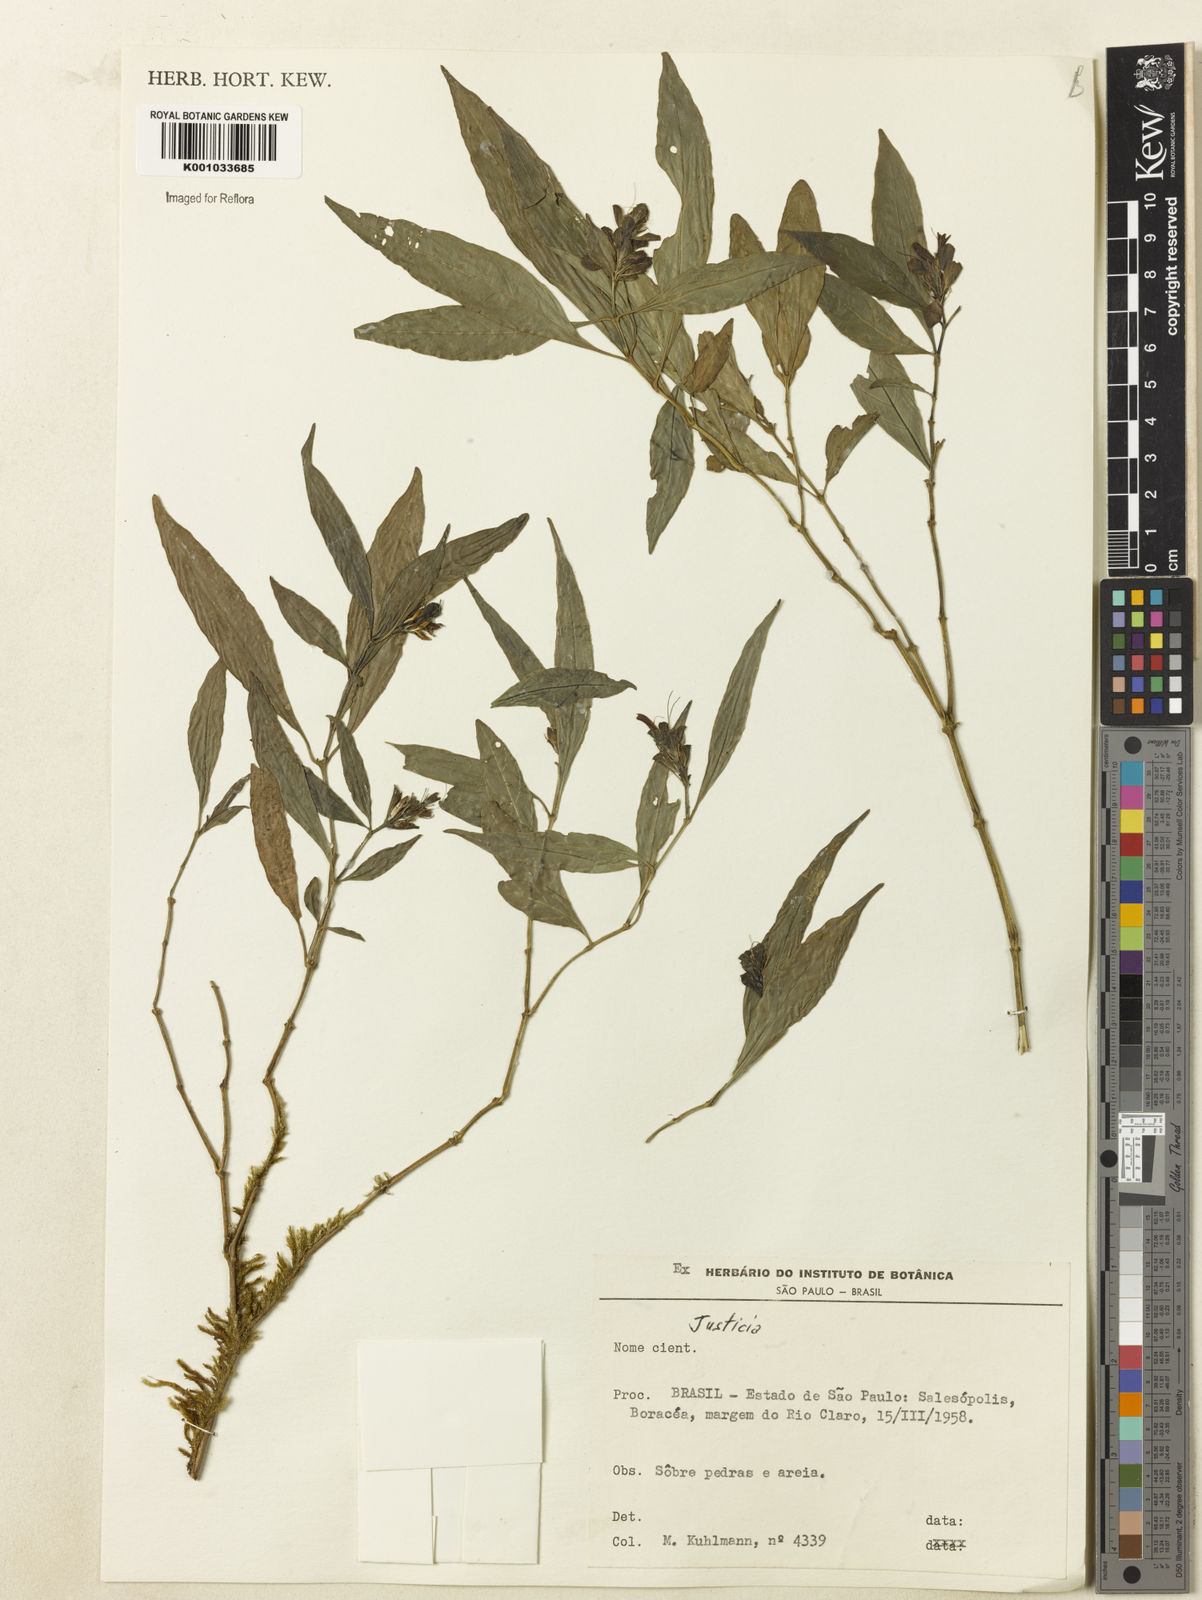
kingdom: Plantae
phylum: Tracheophyta
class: Magnoliopsida
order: Lamiales
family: Acanthaceae
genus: Justicia
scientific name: Justicia
